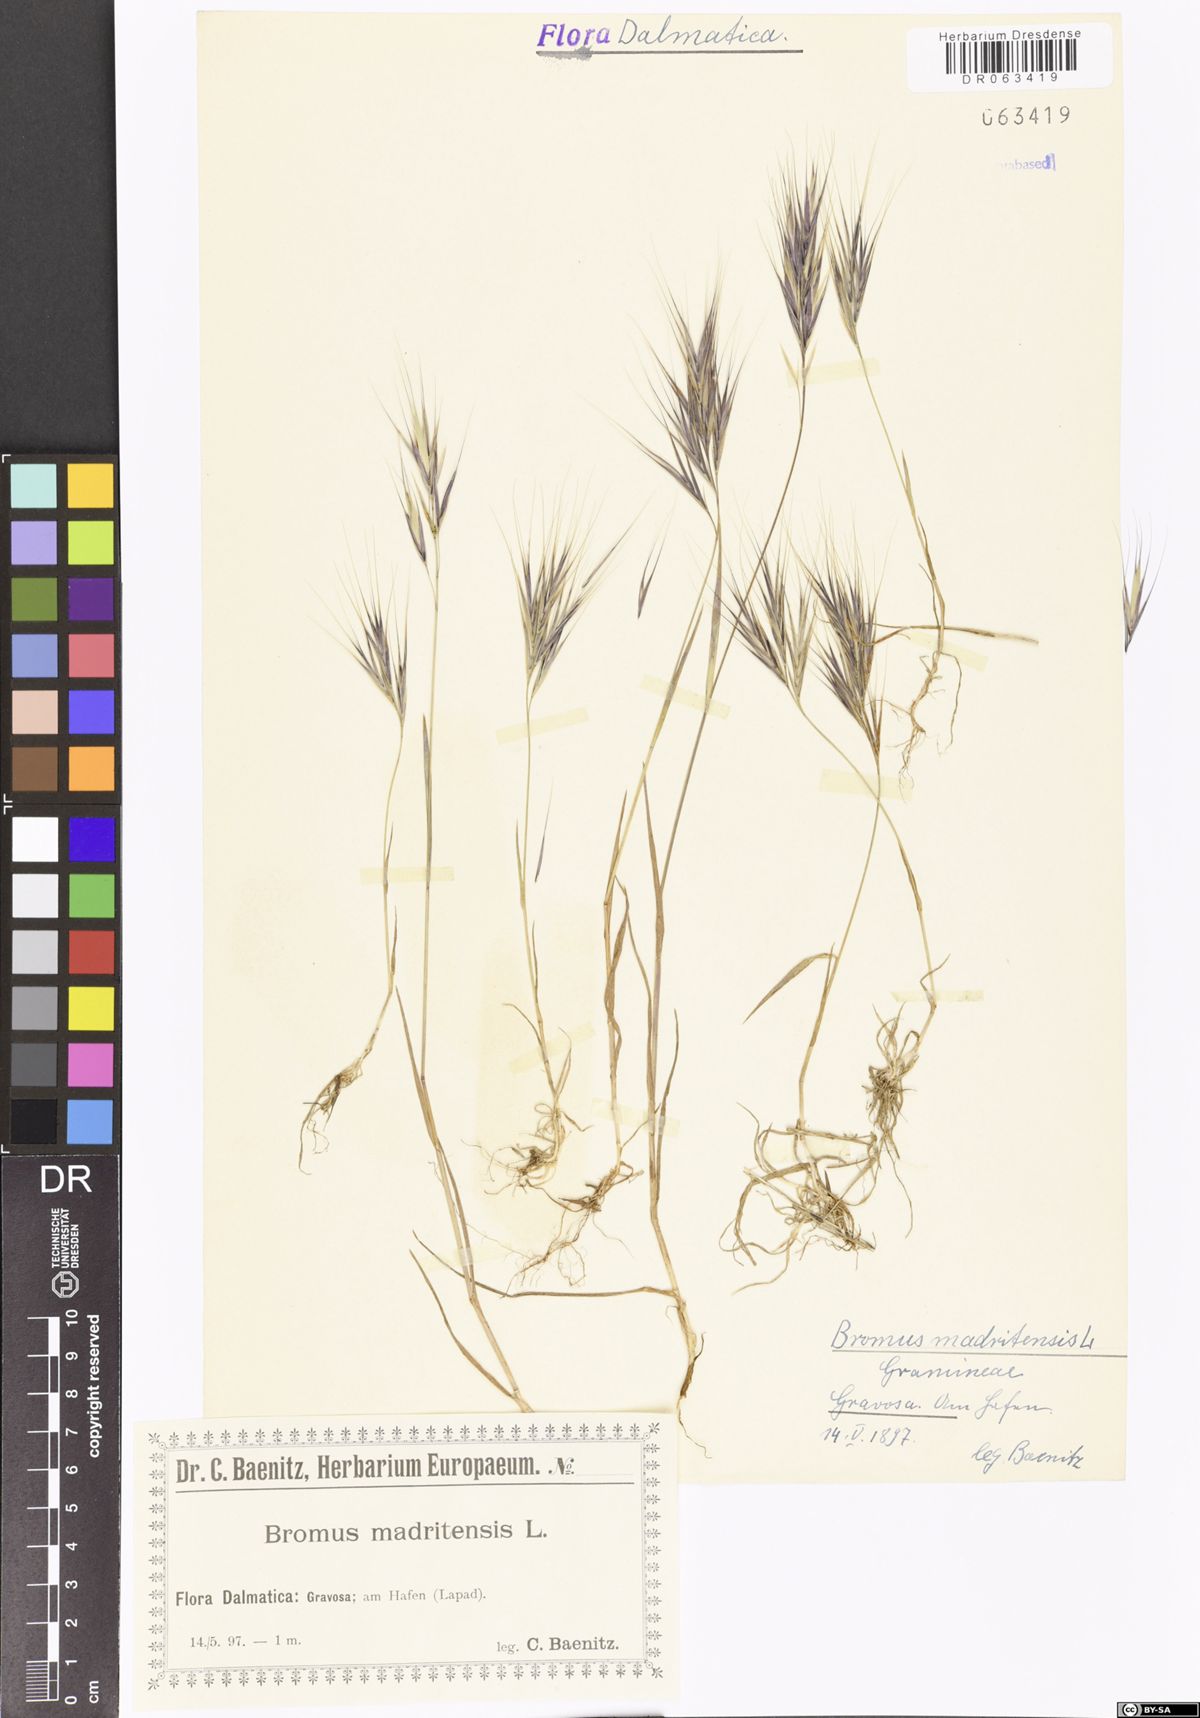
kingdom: Plantae
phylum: Tracheophyta
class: Liliopsida
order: Poales
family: Poaceae
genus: Bromus
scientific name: Bromus madritensis
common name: Compact brome
